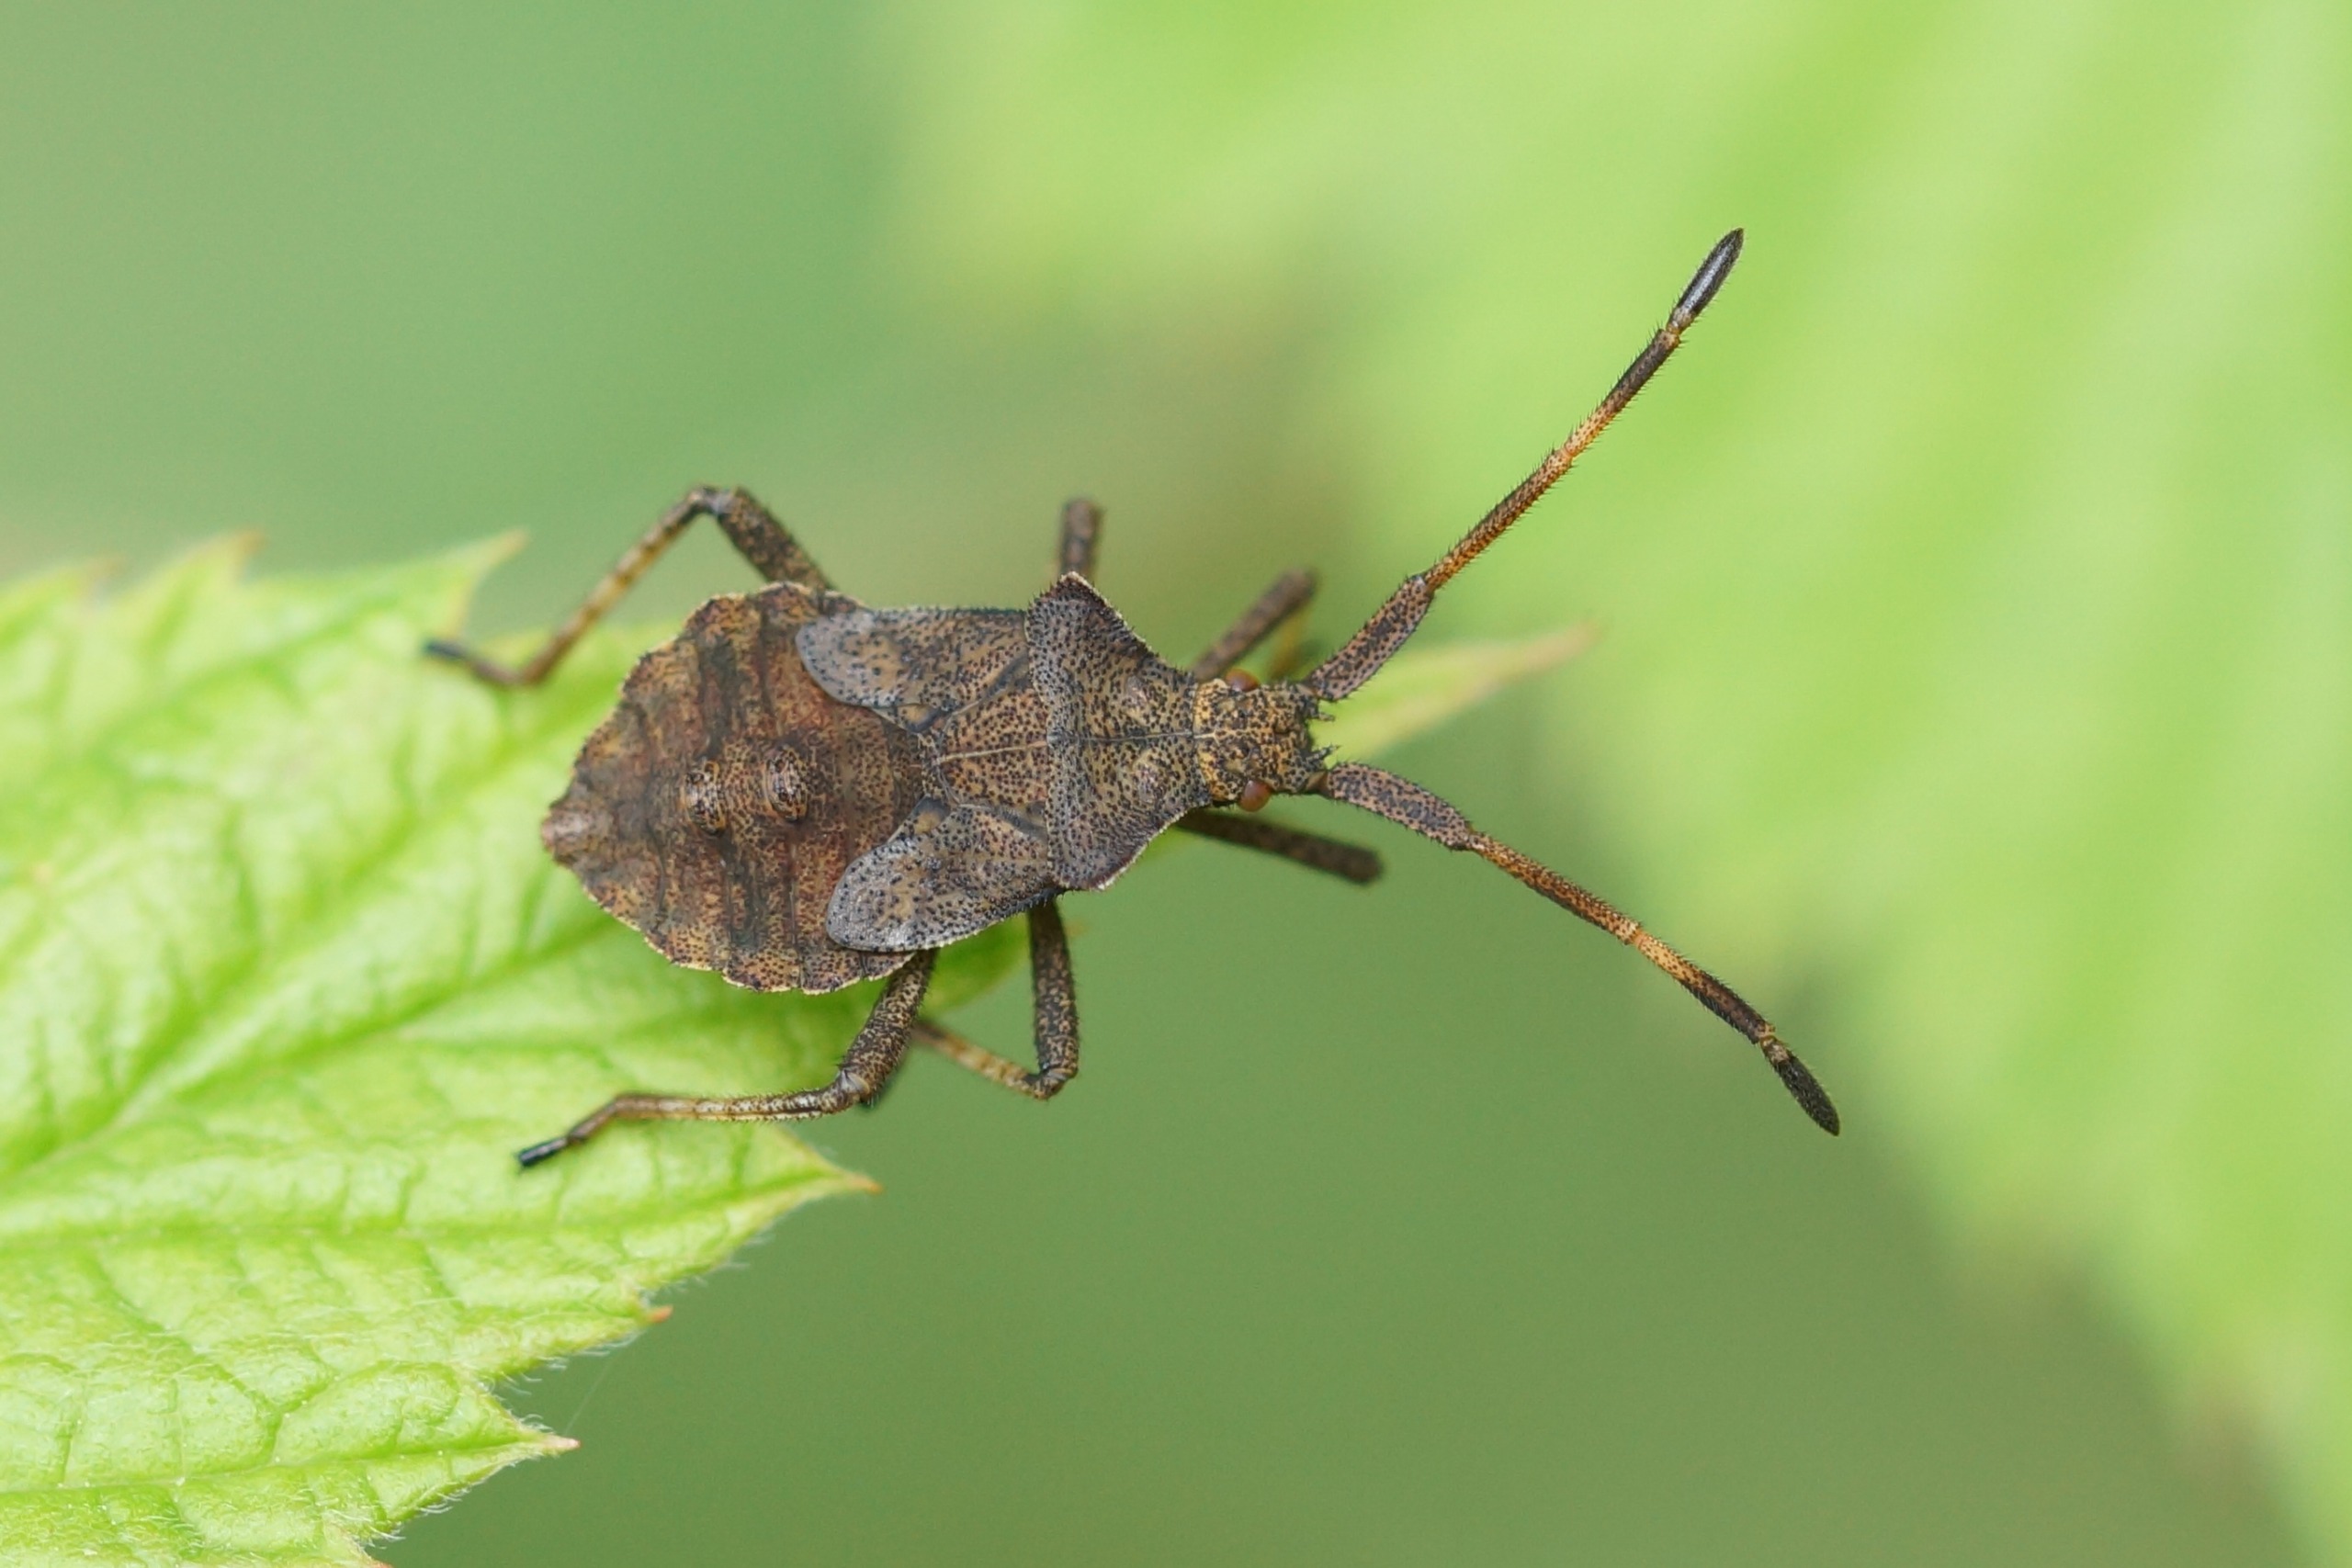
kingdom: Animalia
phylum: Arthropoda
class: Insecta
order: Hemiptera
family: Coreidae
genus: Coreus
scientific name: Coreus marginatus
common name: Skræppetæge
